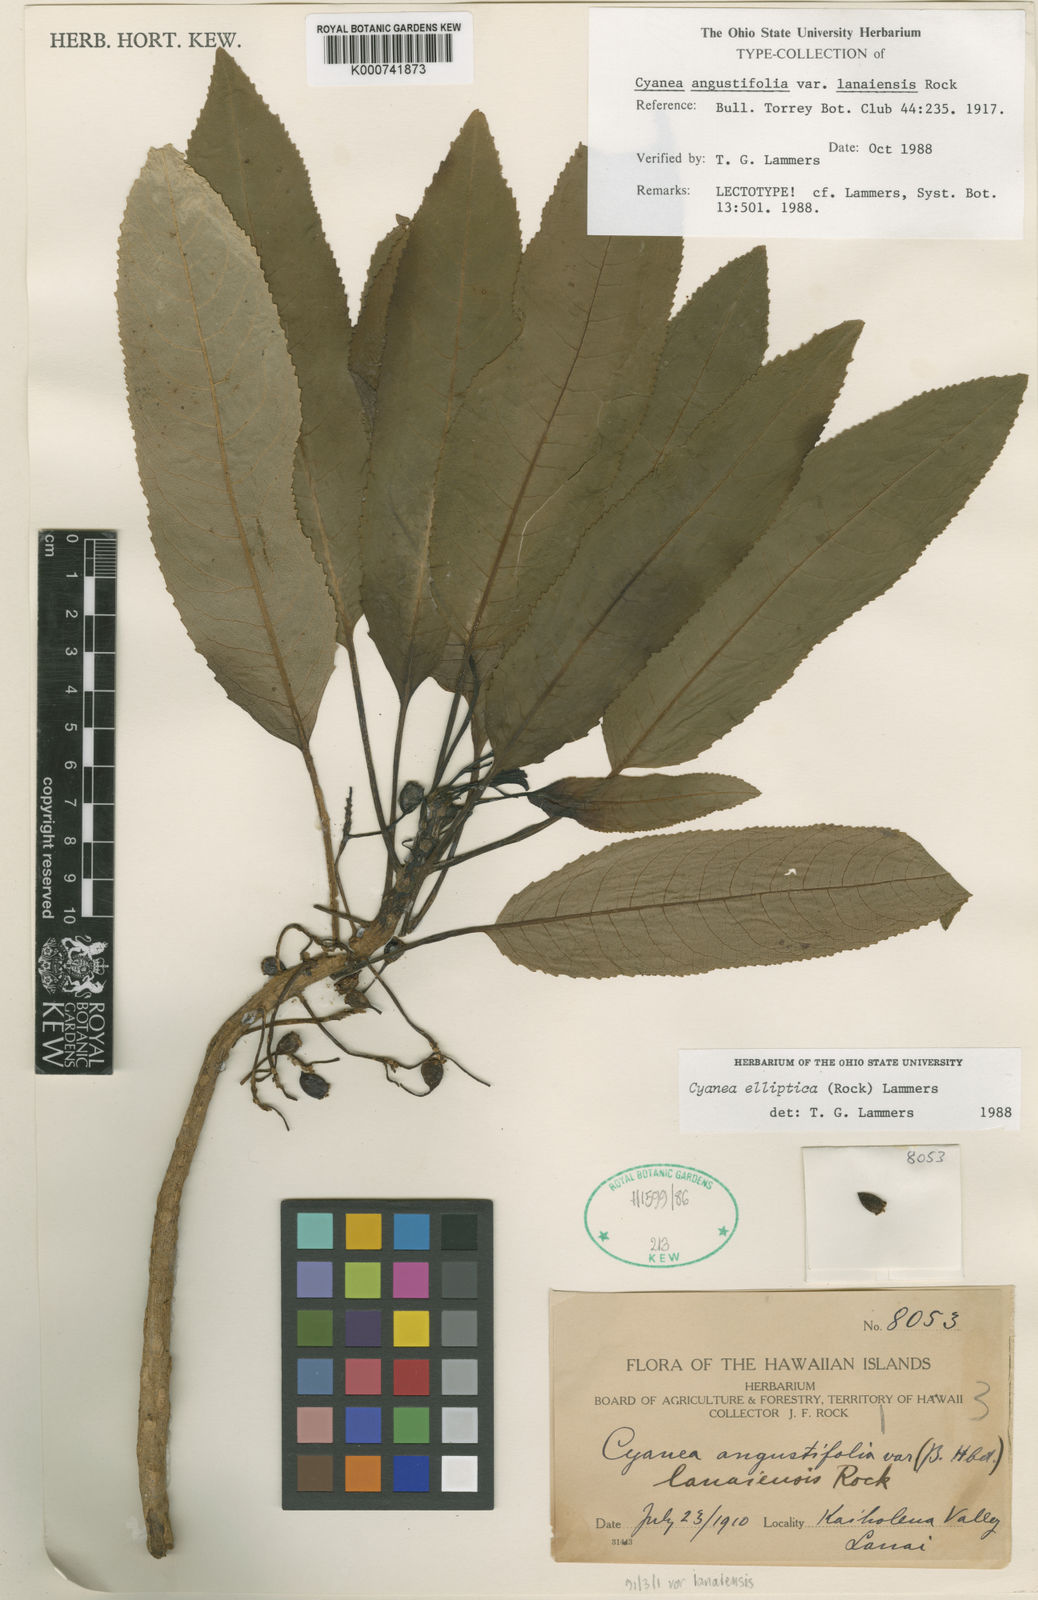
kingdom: Plantae
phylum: Tracheophyta
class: Magnoliopsida
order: Asterales
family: Campanulaceae
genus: Cyanea
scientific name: Cyanea elliptica
